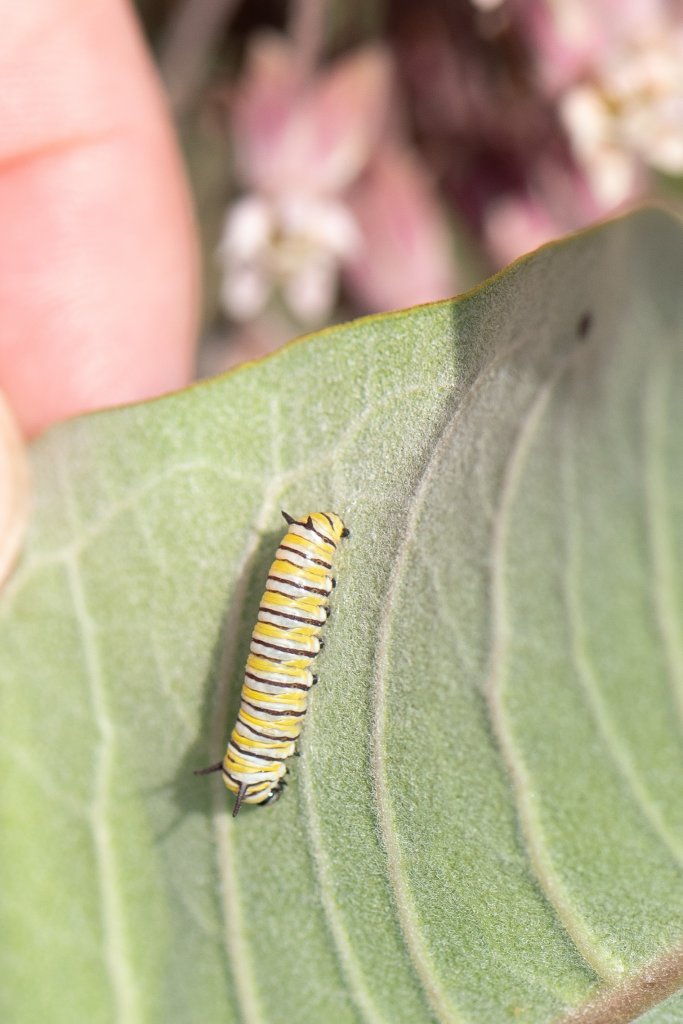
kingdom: Animalia
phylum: Arthropoda
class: Insecta
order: Lepidoptera
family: Nymphalidae
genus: Danaus
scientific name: Danaus plexippus
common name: Monarch
